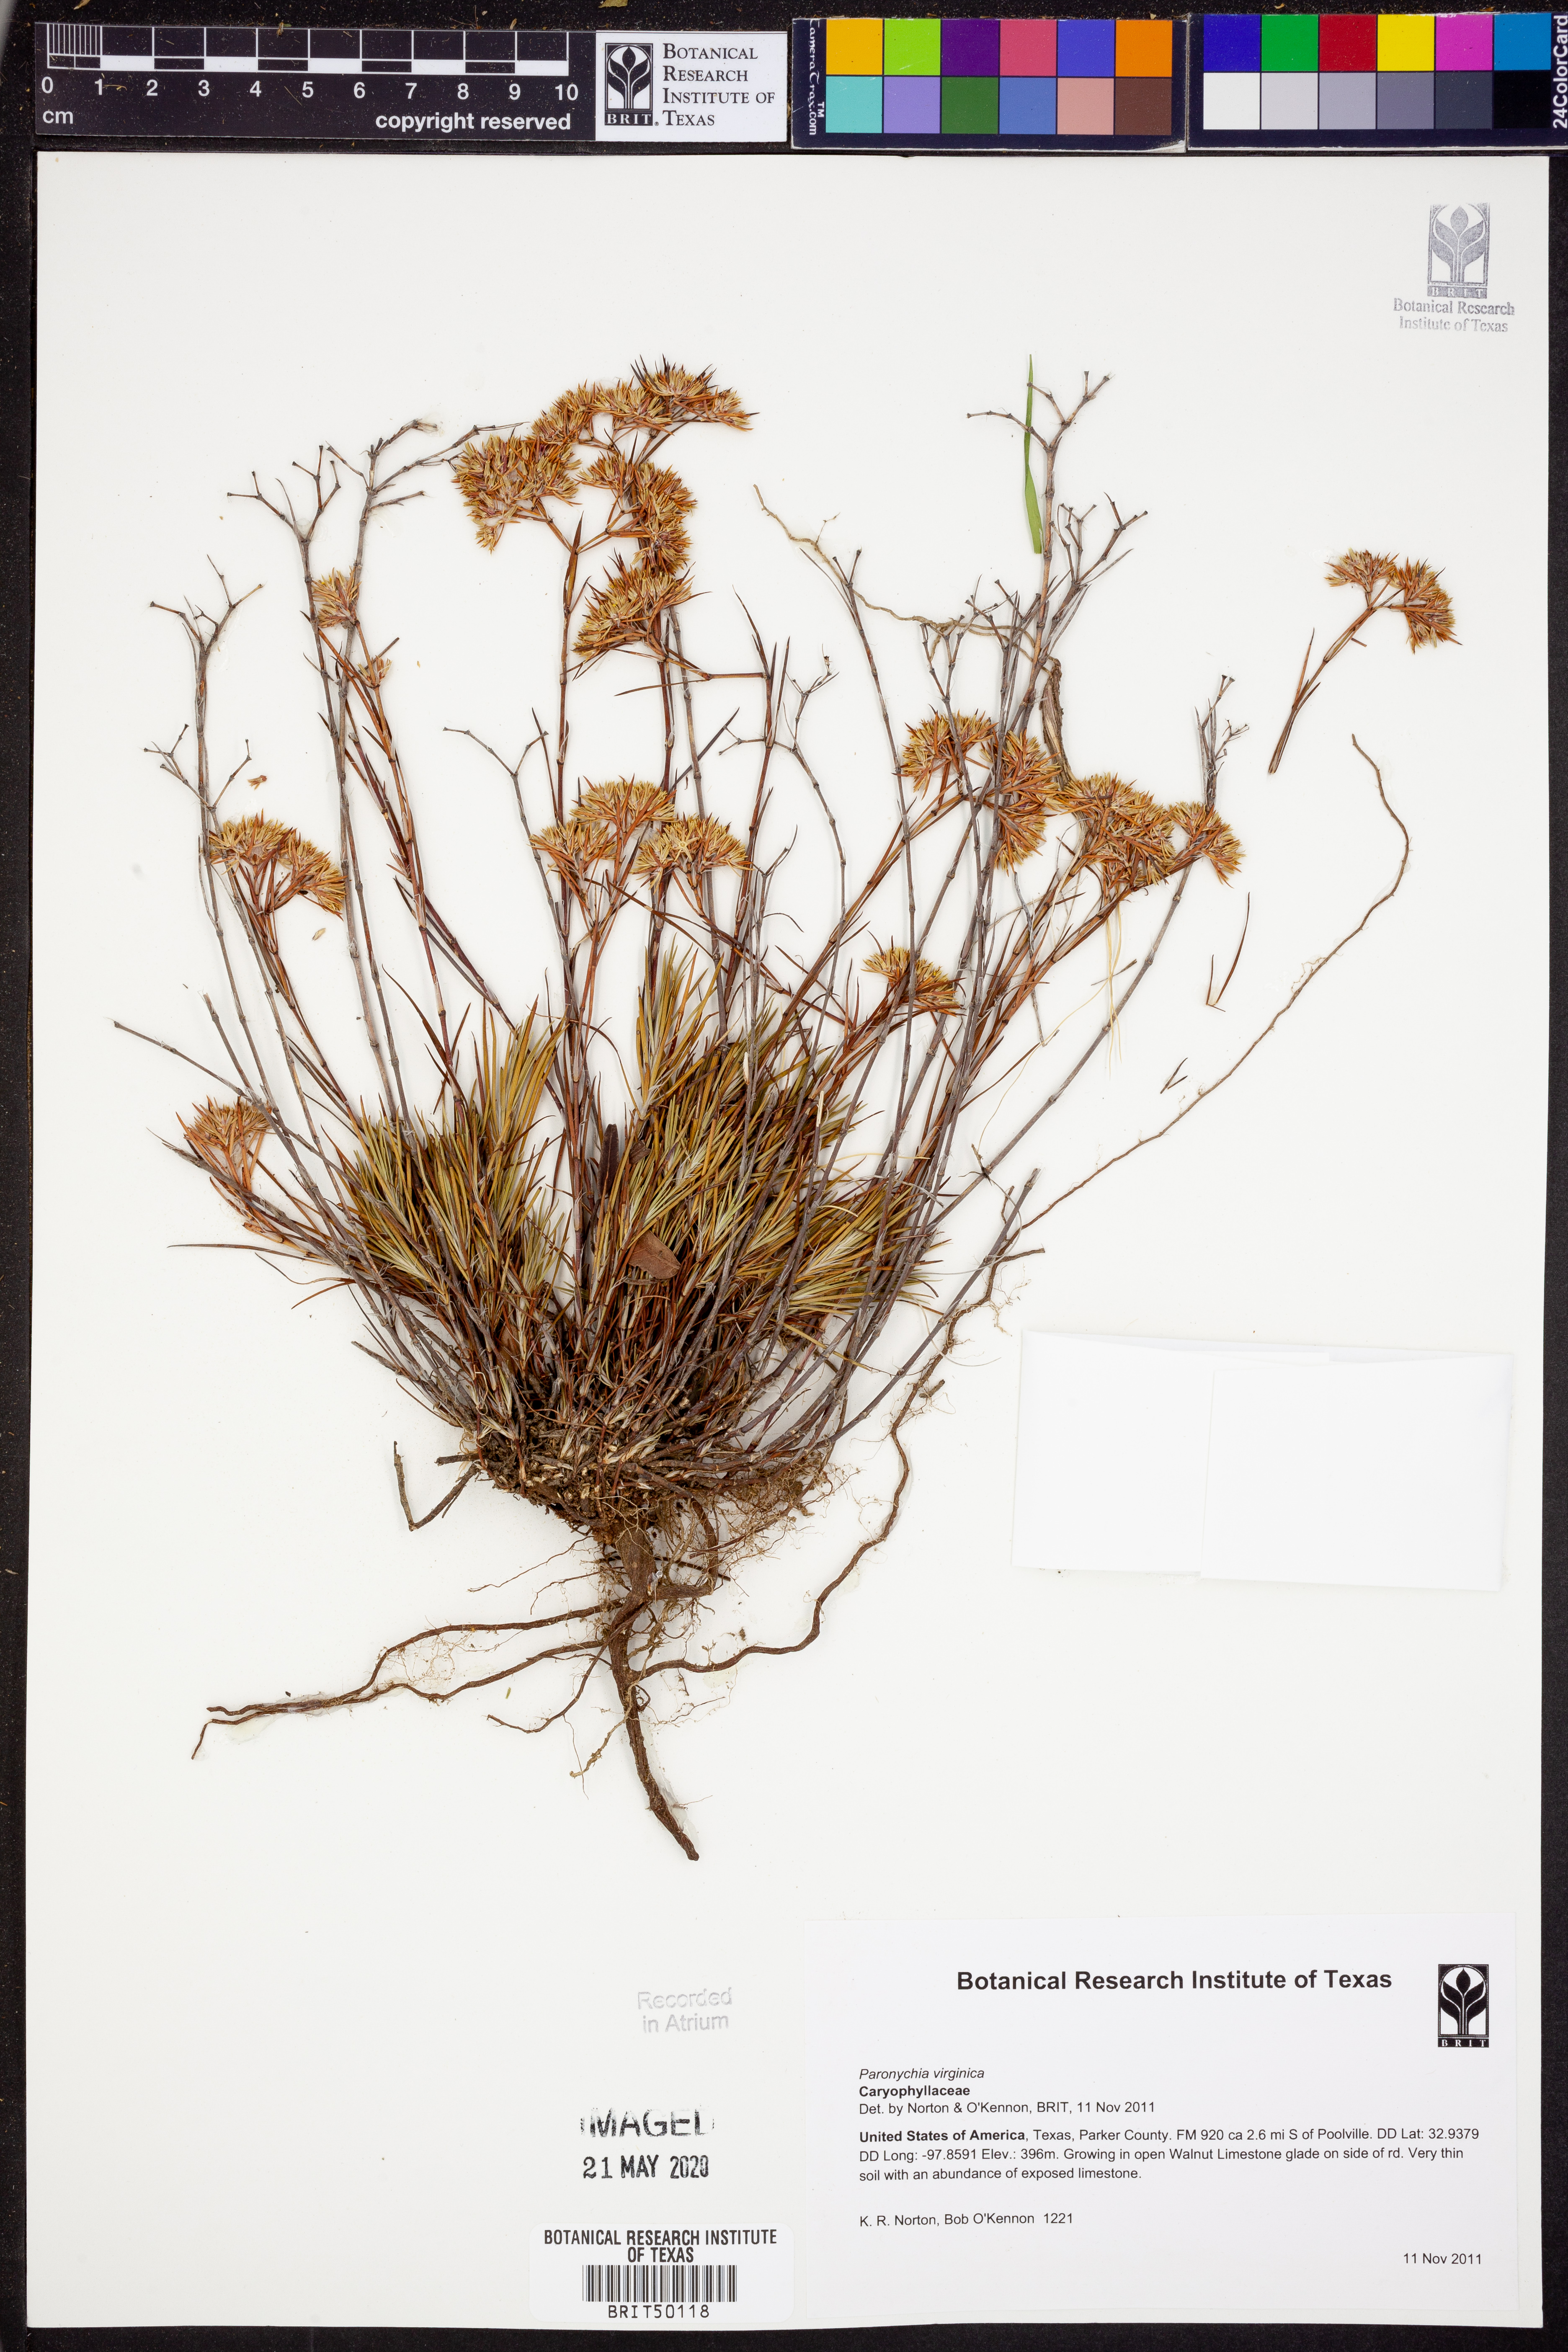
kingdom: Plantae
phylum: Tracheophyta
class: Magnoliopsida
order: Caryophyllales
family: Caryophyllaceae
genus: Paronychia
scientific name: Paronychia virginica
